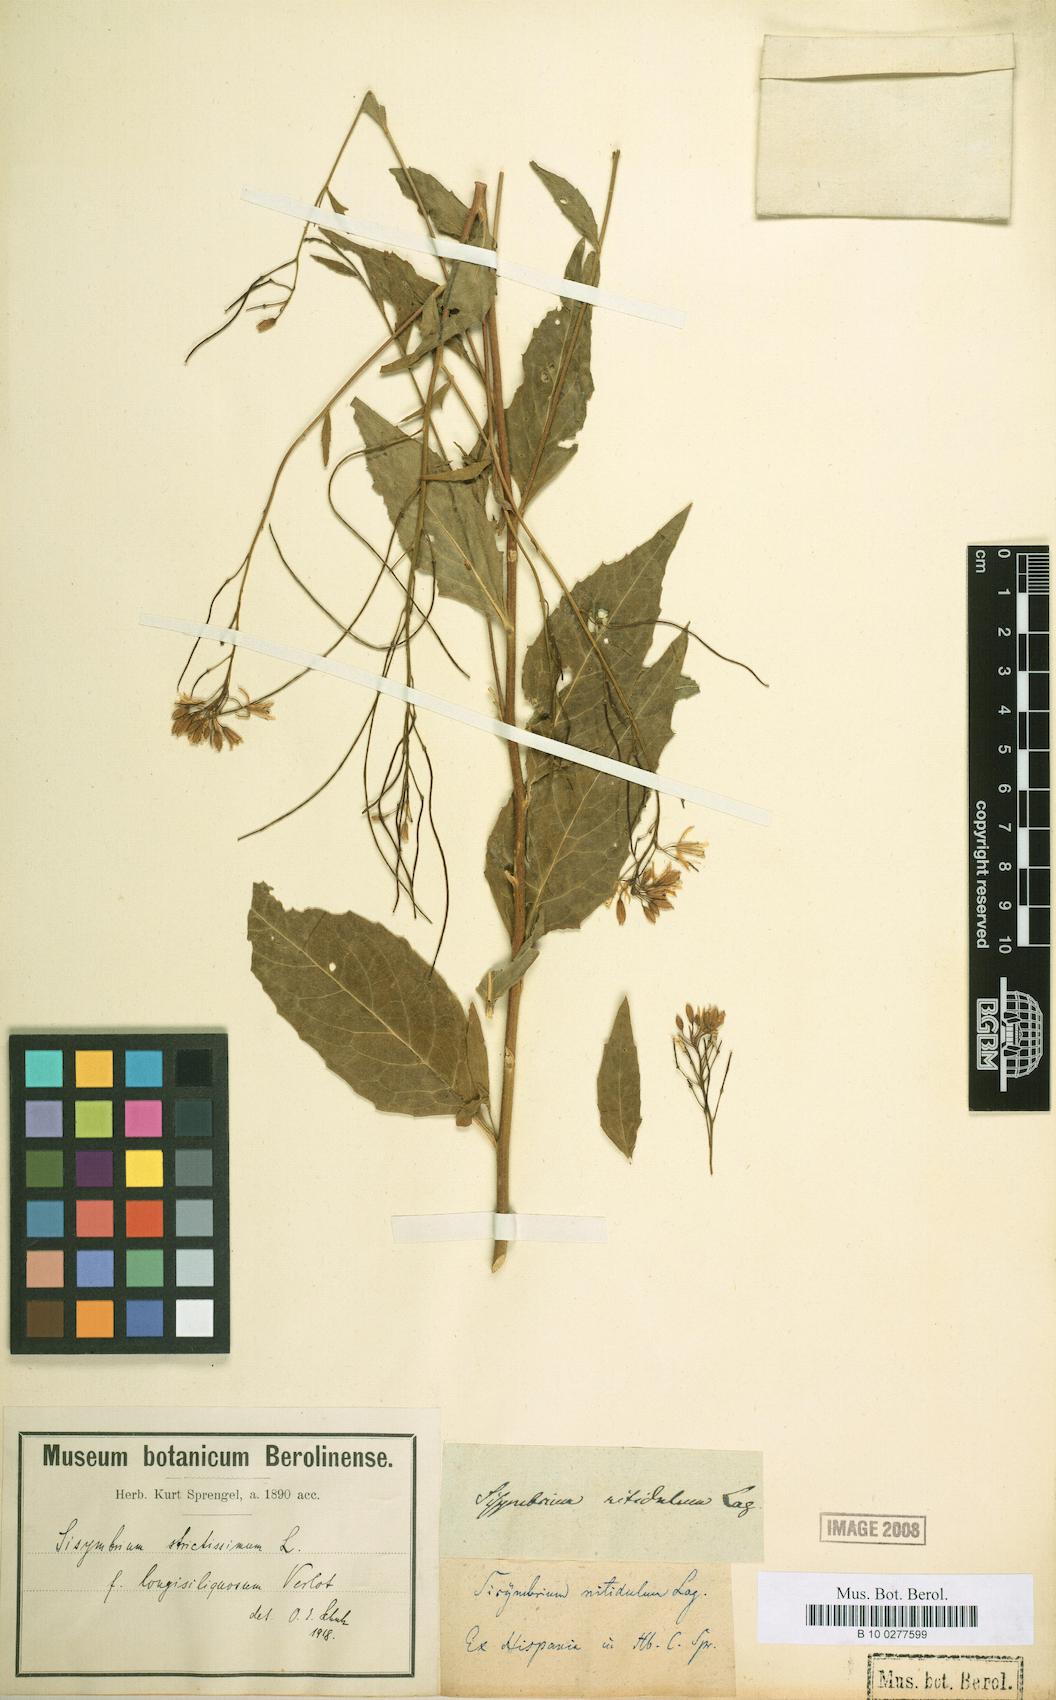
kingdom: Plantae
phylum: Tracheophyta
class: Magnoliopsida
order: Brassicales
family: Brassicaceae
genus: Sisymbrium
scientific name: Sisymbrium strictissimum
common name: Perennial rocket
